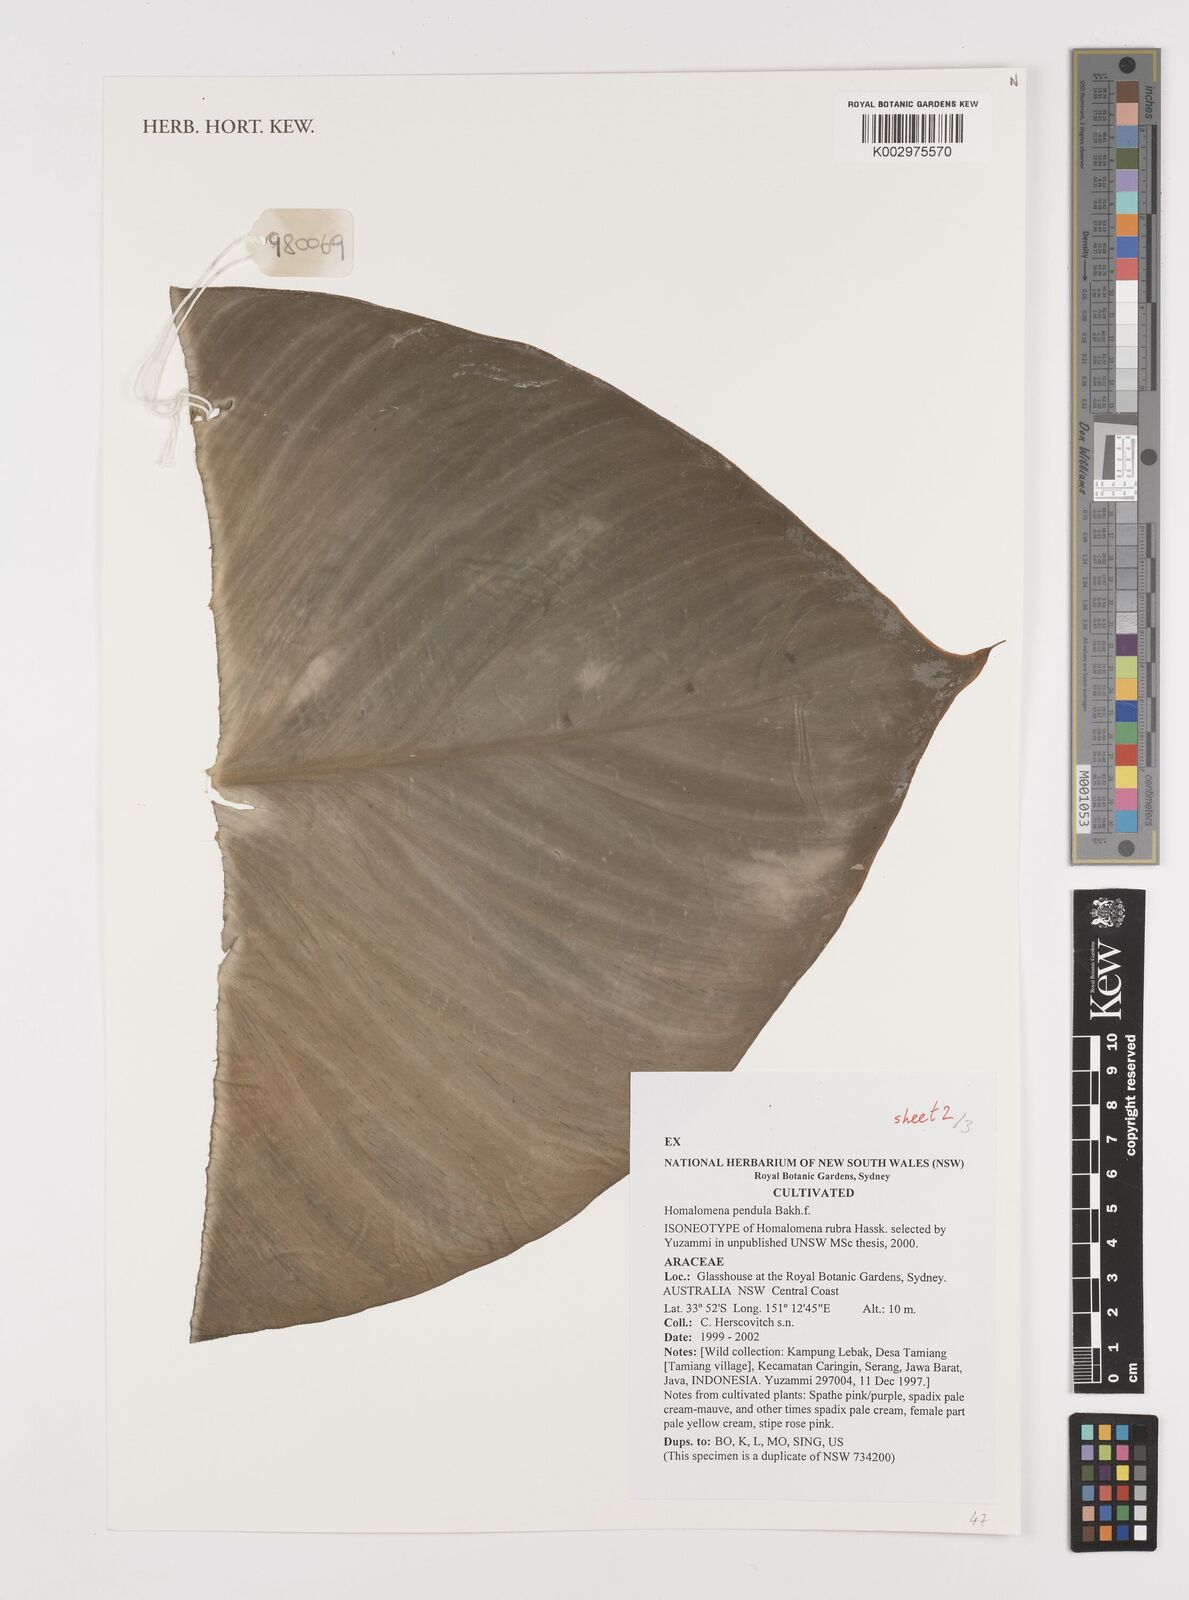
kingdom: Plantae
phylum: Tracheophyta
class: Liliopsida
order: Alismatales
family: Araceae
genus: Homalomena
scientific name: Homalomena
